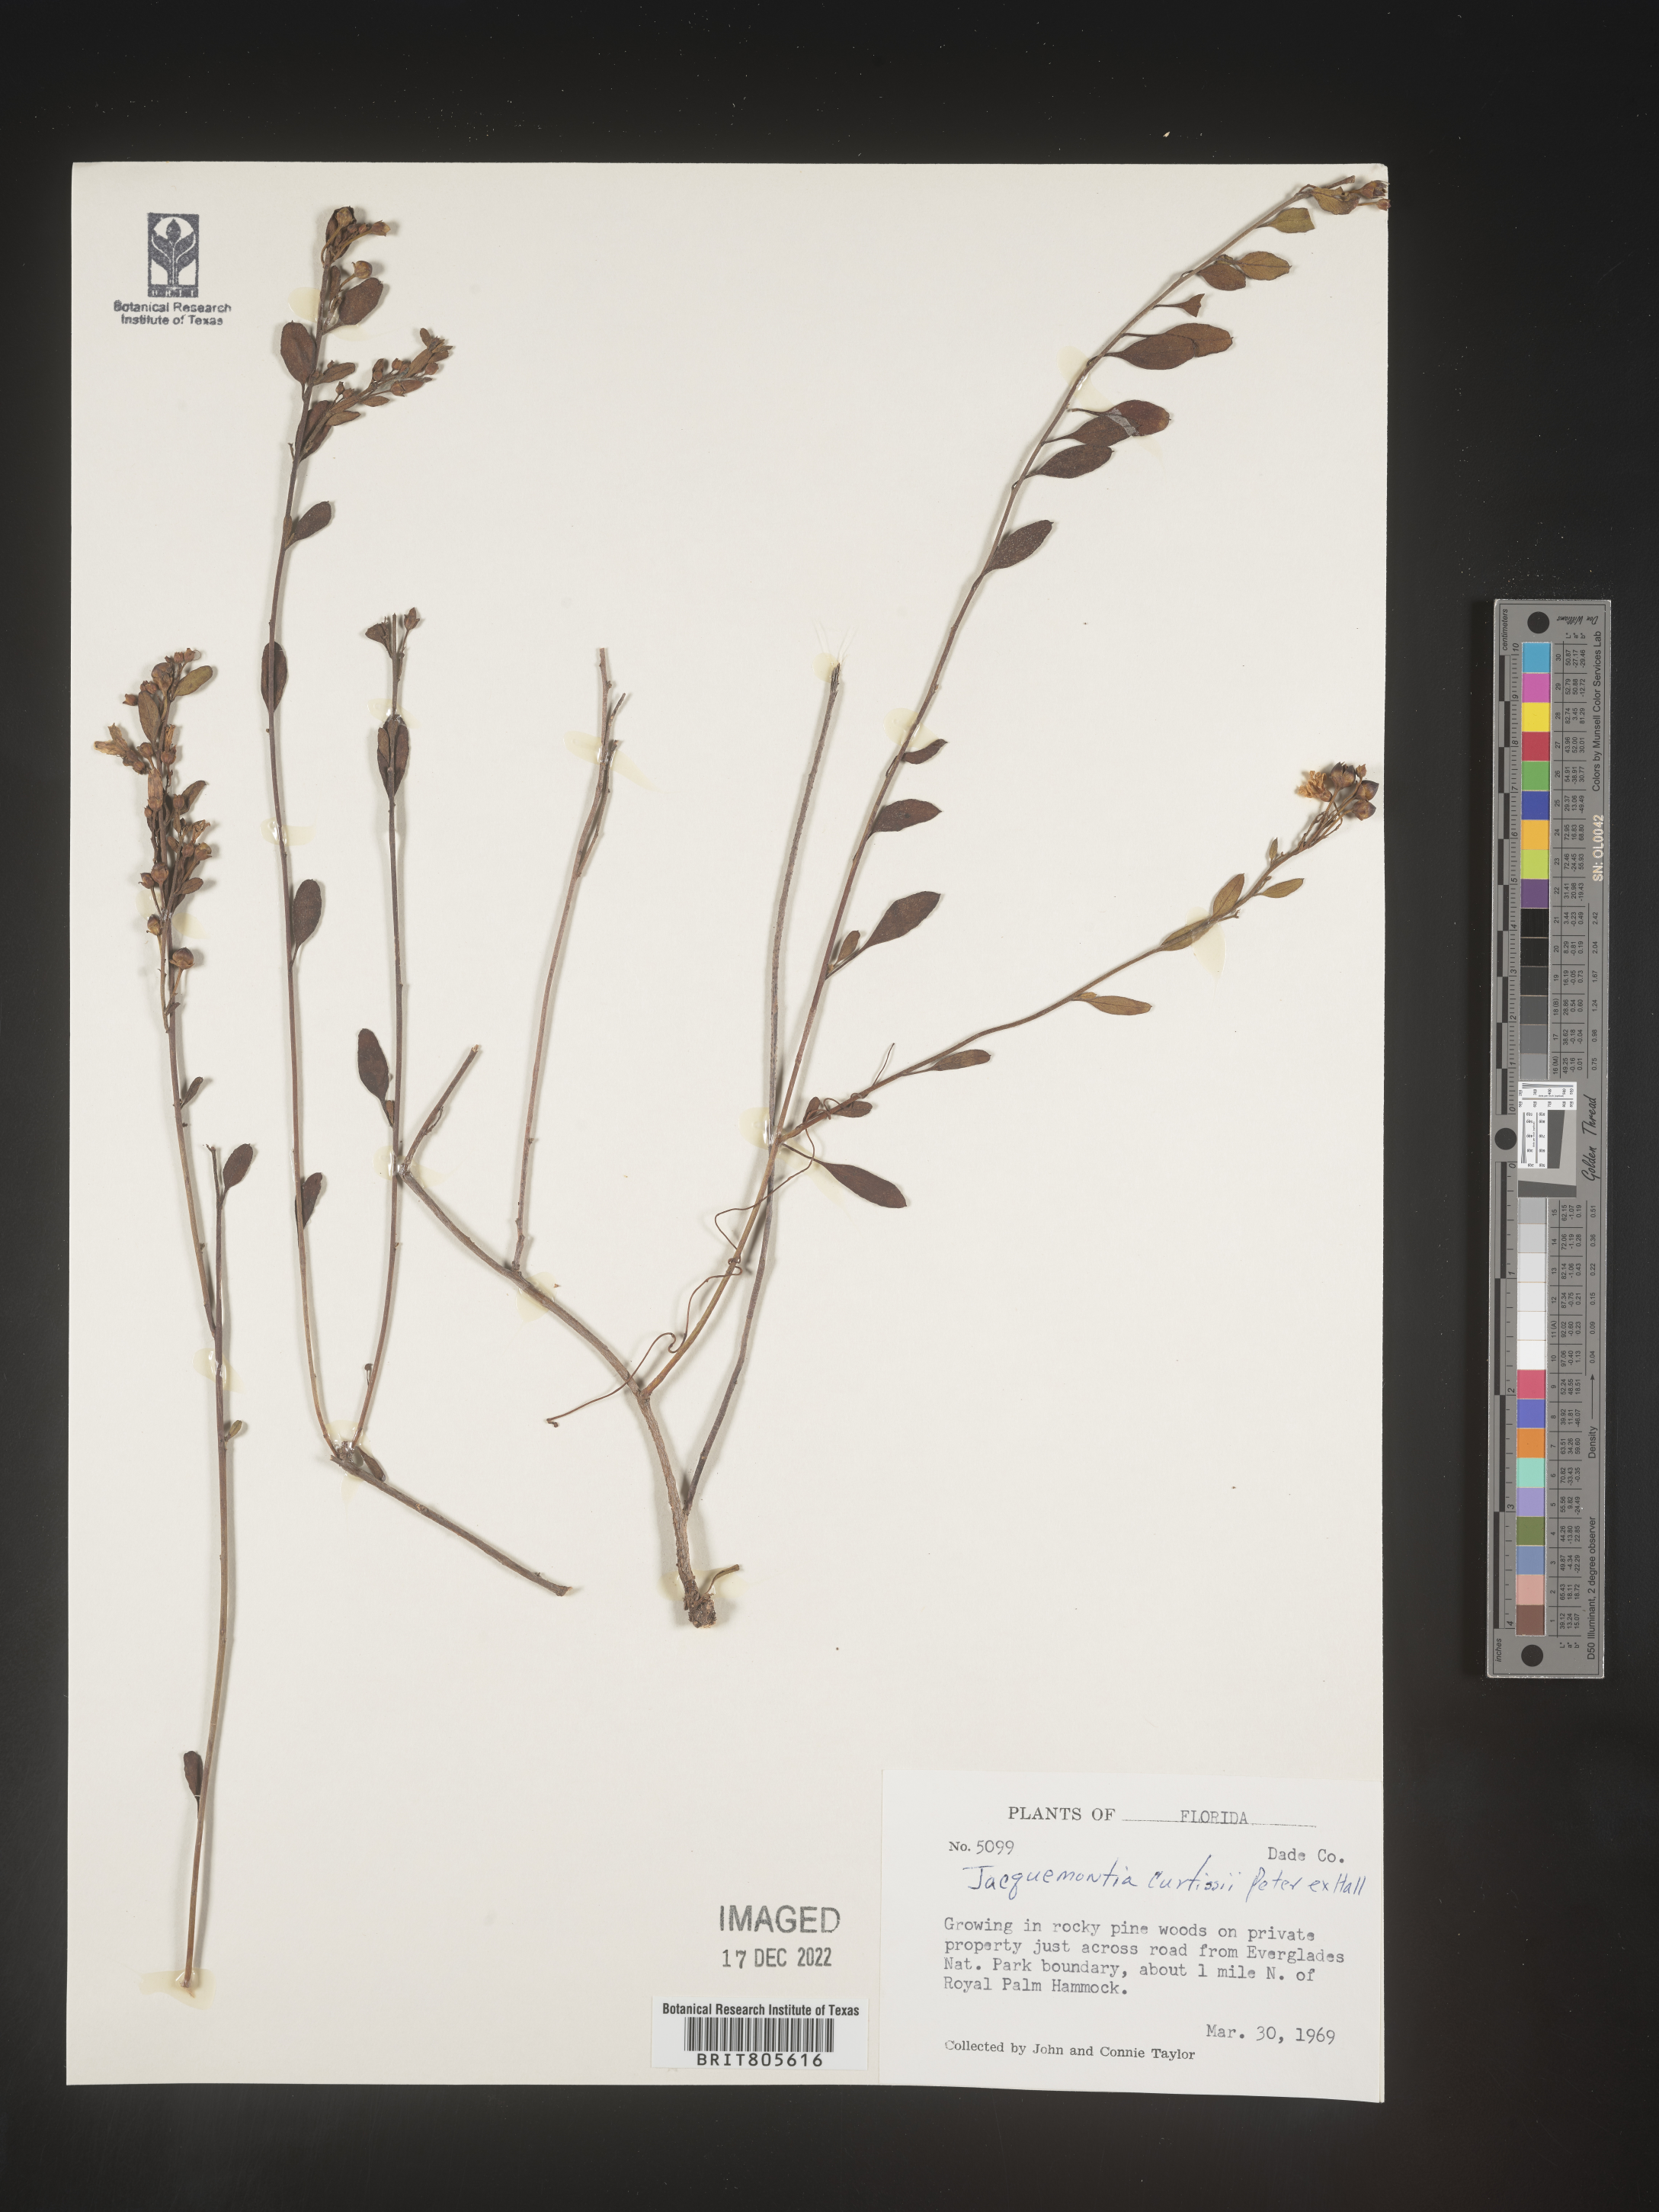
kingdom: Plantae
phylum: Tracheophyta
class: Magnoliopsida
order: Solanales
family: Convolvulaceae
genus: Jacquemontia
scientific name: Jacquemontia
